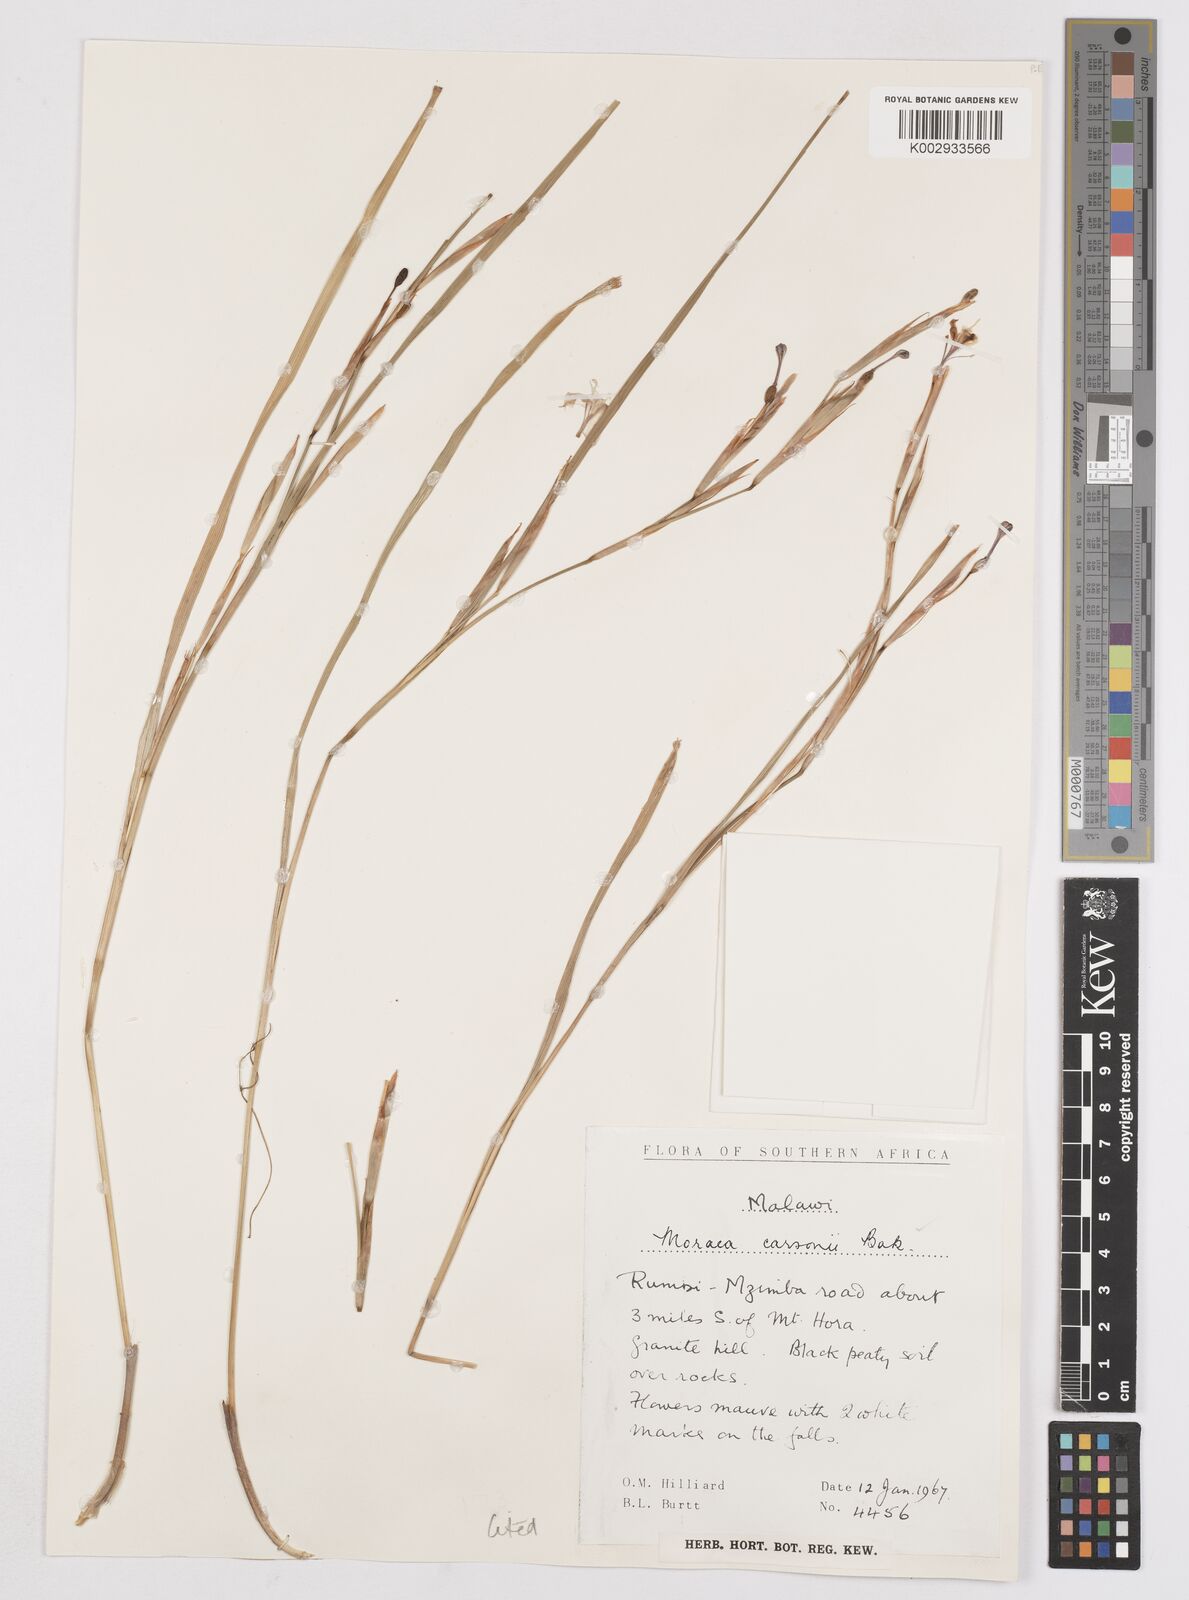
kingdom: Plantae
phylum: Tracheophyta
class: Liliopsida
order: Asparagales
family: Iridaceae
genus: Moraea
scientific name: Moraea carsonii
